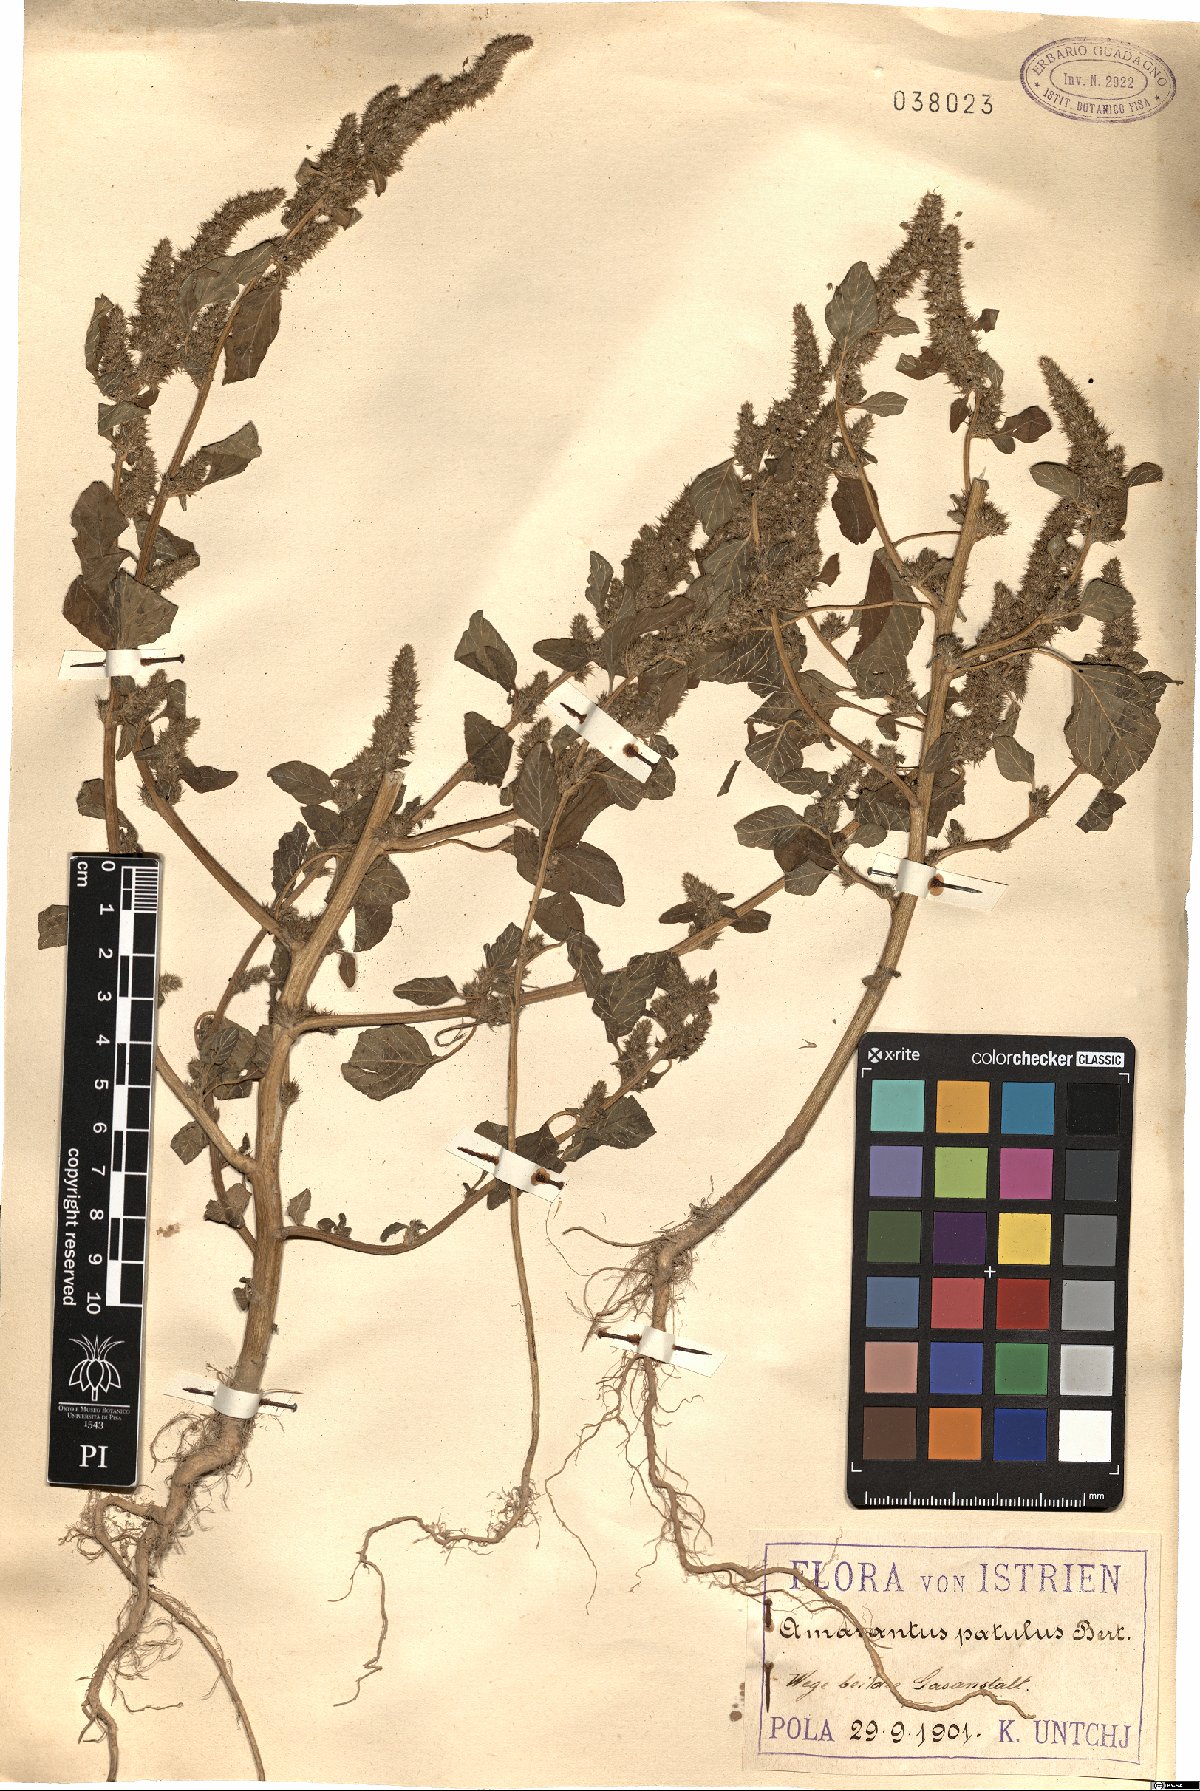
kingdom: Plantae
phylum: Tracheophyta
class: Magnoliopsida
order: Caryophyllales
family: Amaranthaceae
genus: Amaranthus
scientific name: Amaranthus hybridus
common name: Green amaranth
